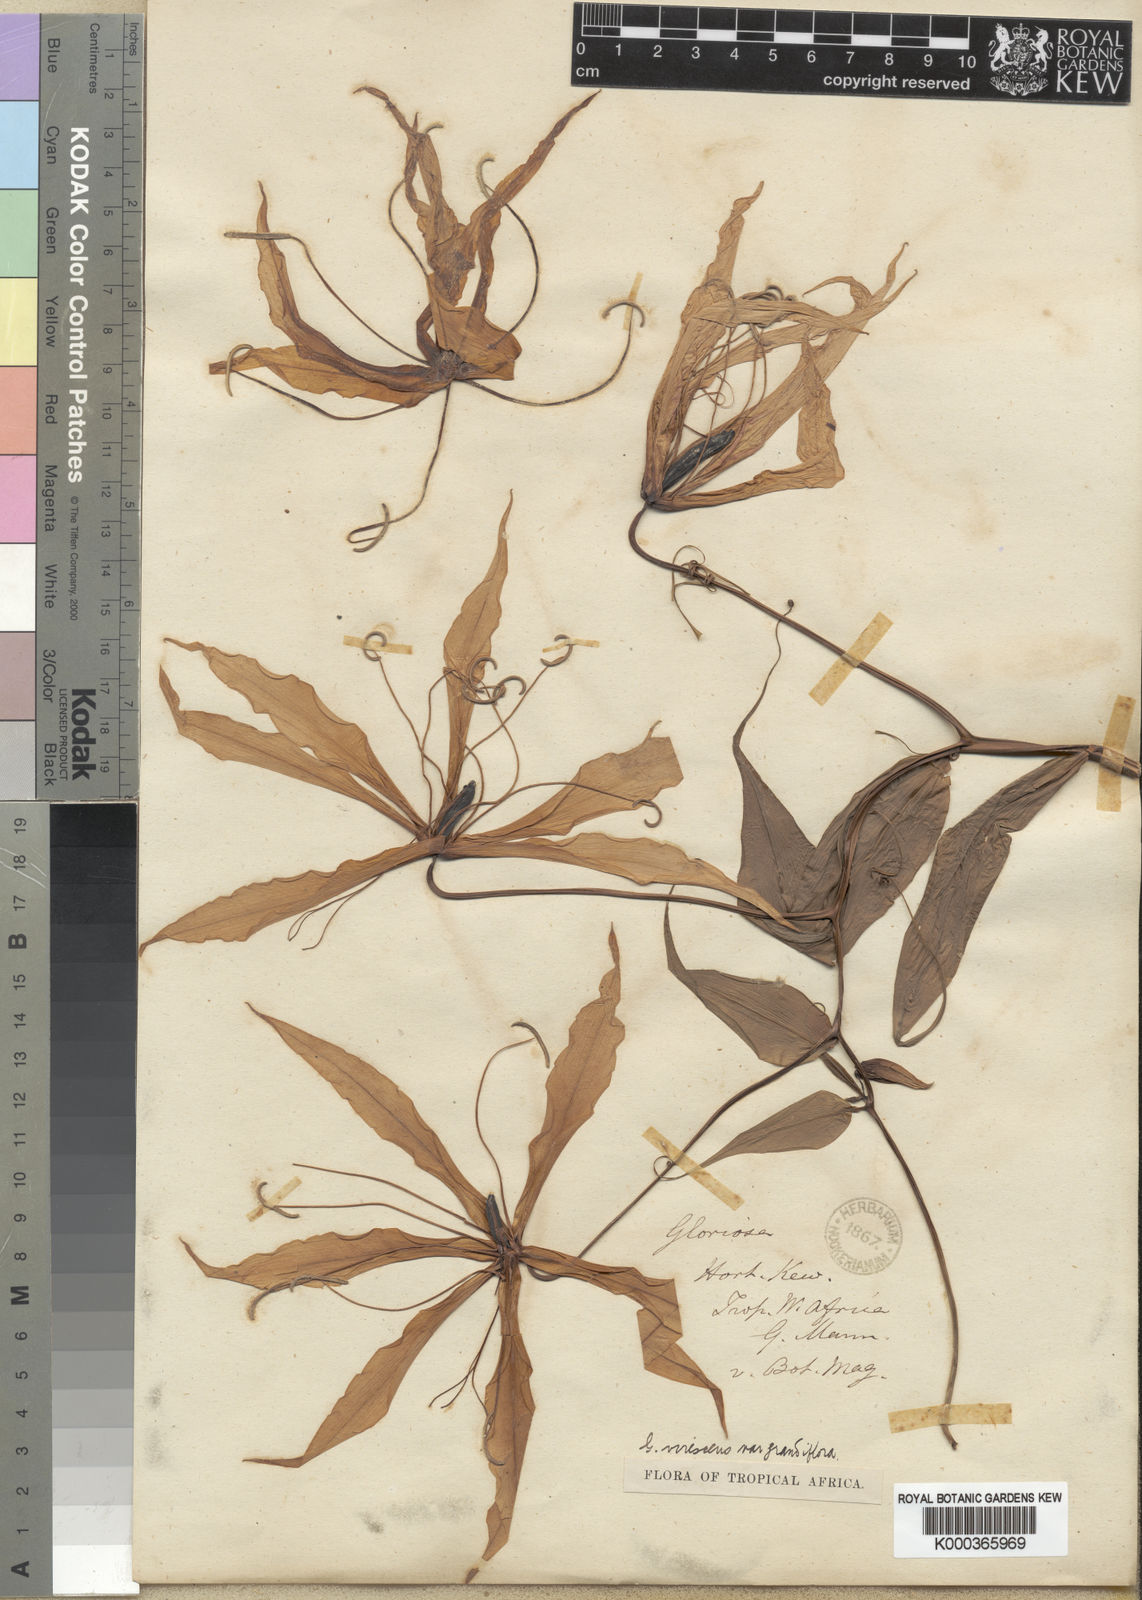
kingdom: Plantae
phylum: Tracheophyta
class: Liliopsida
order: Liliales
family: Colchicaceae
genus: Gloriosa
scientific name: Gloriosa simplex
